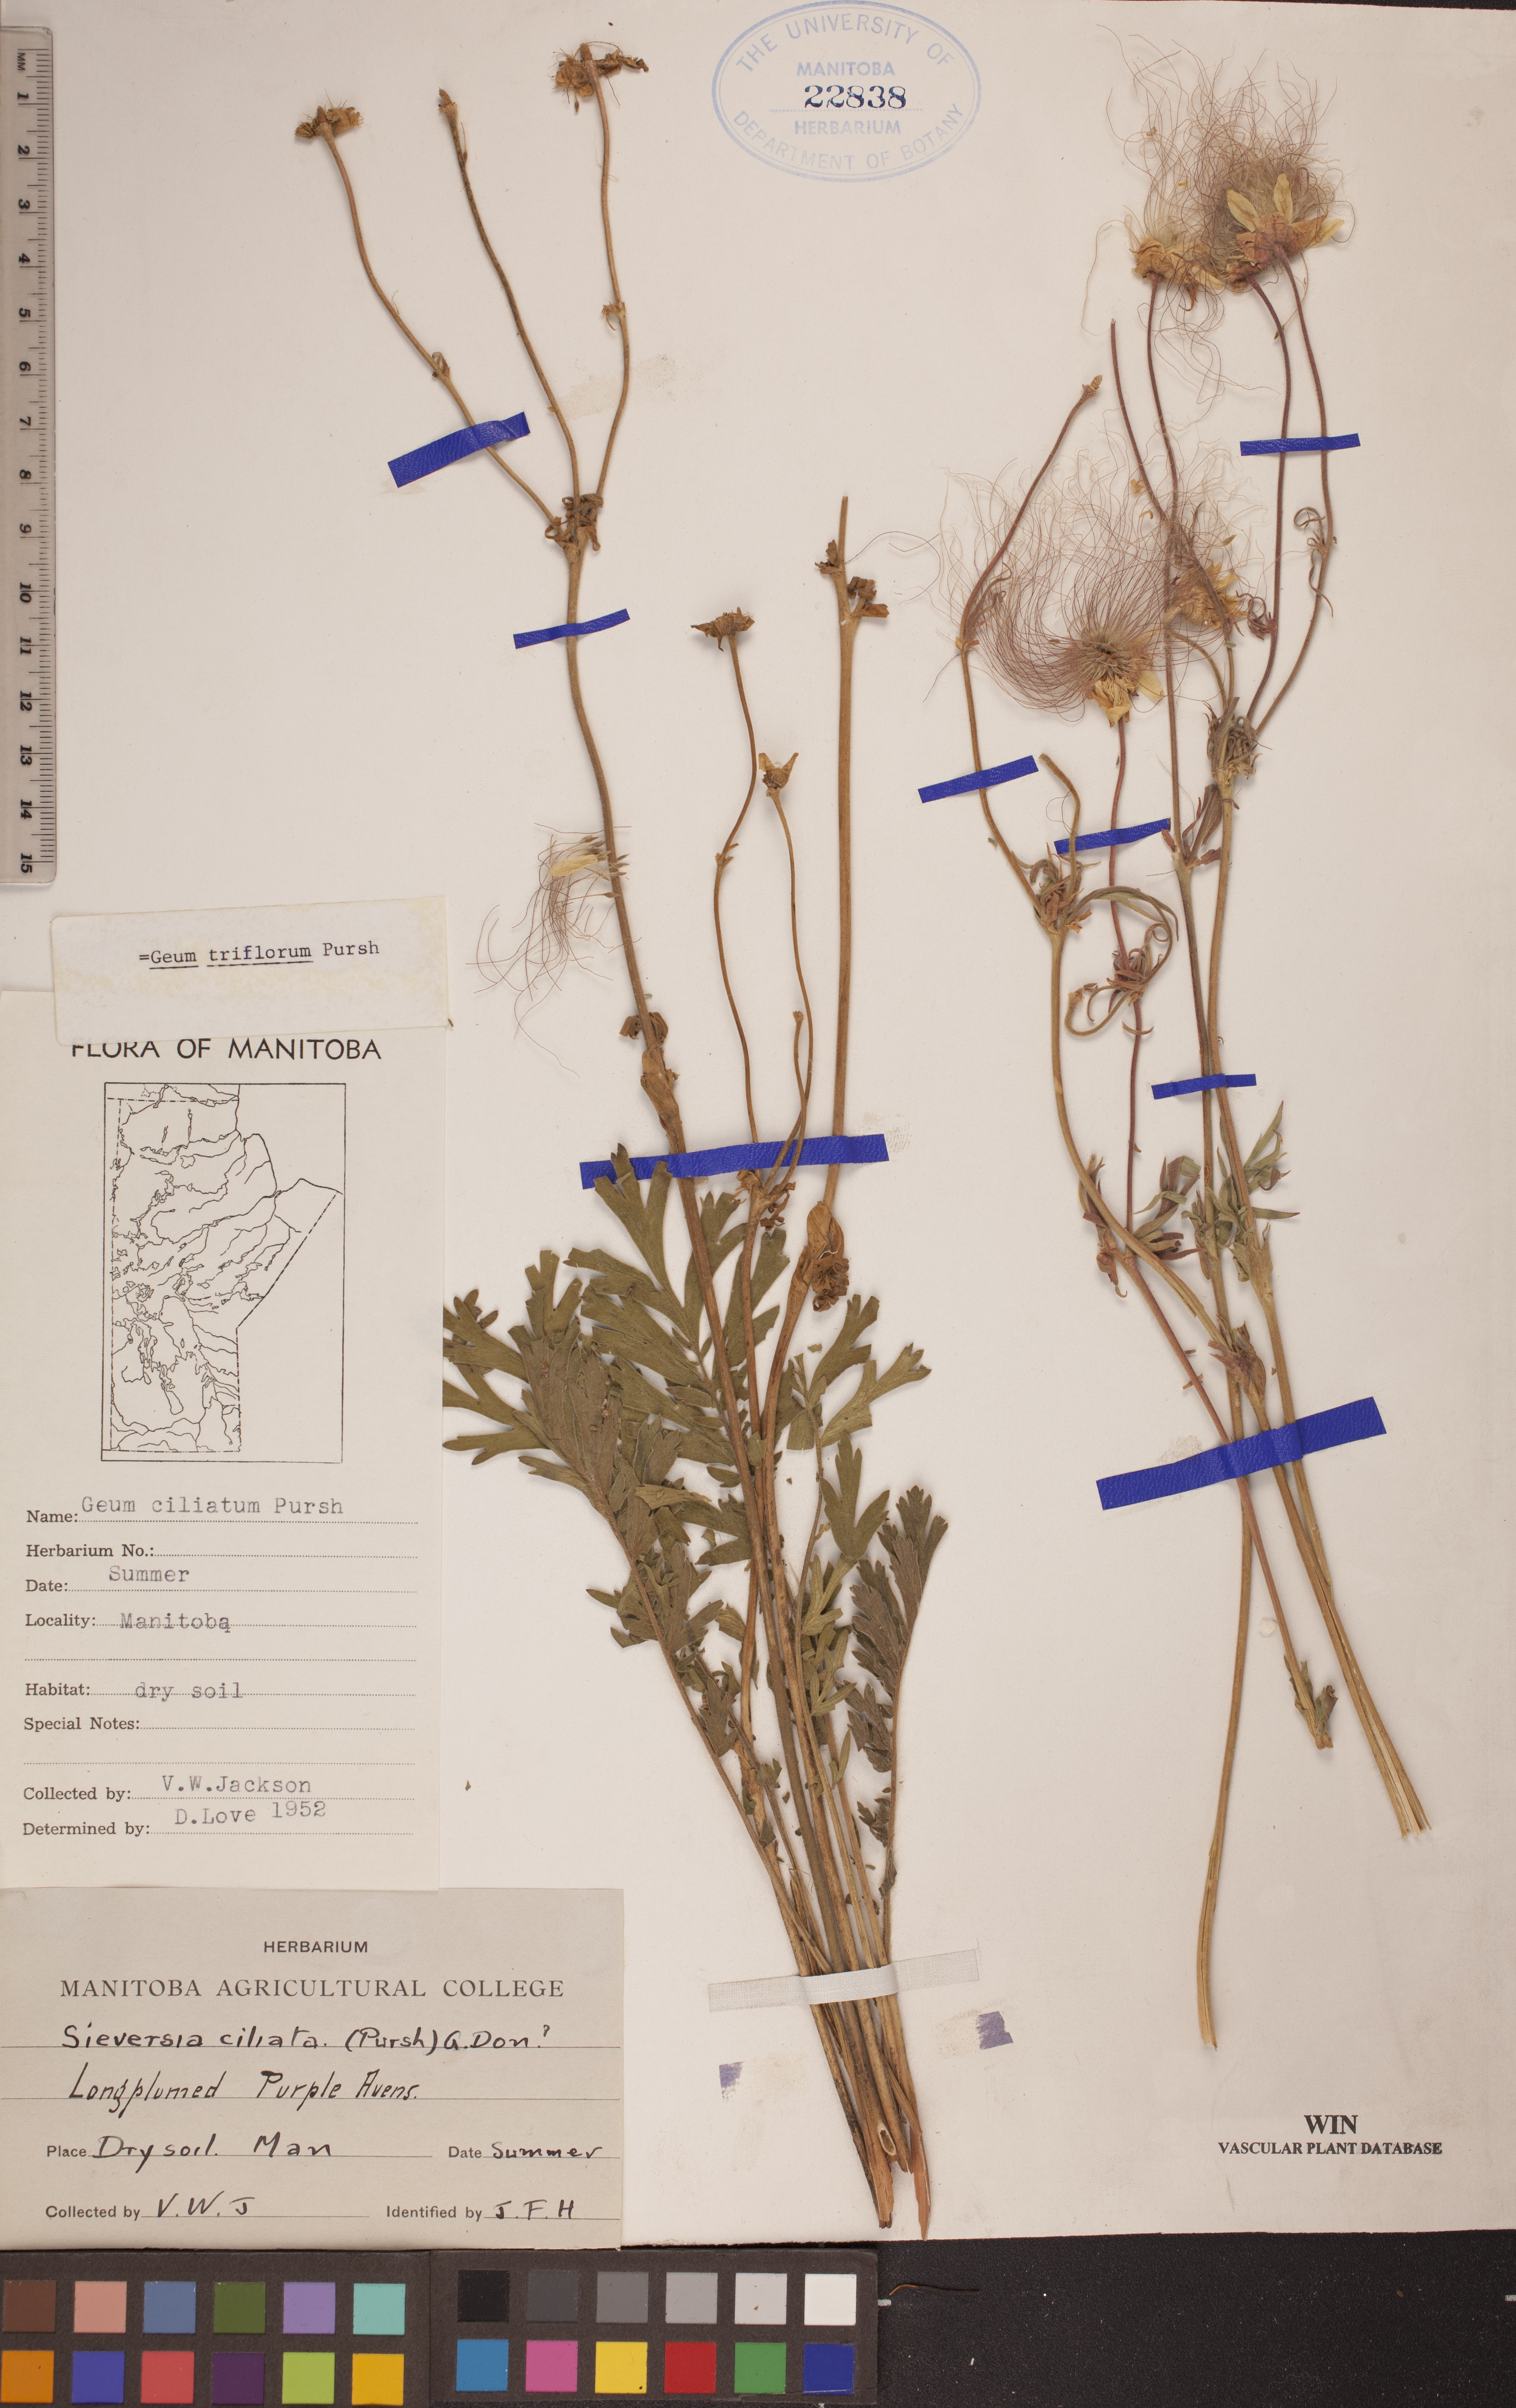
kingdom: Plantae
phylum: Tracheophyta
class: Magnoliopsida
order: Rosales
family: Rosaceae
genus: Geum
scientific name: Geum triflorum
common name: Old man's whiskers
